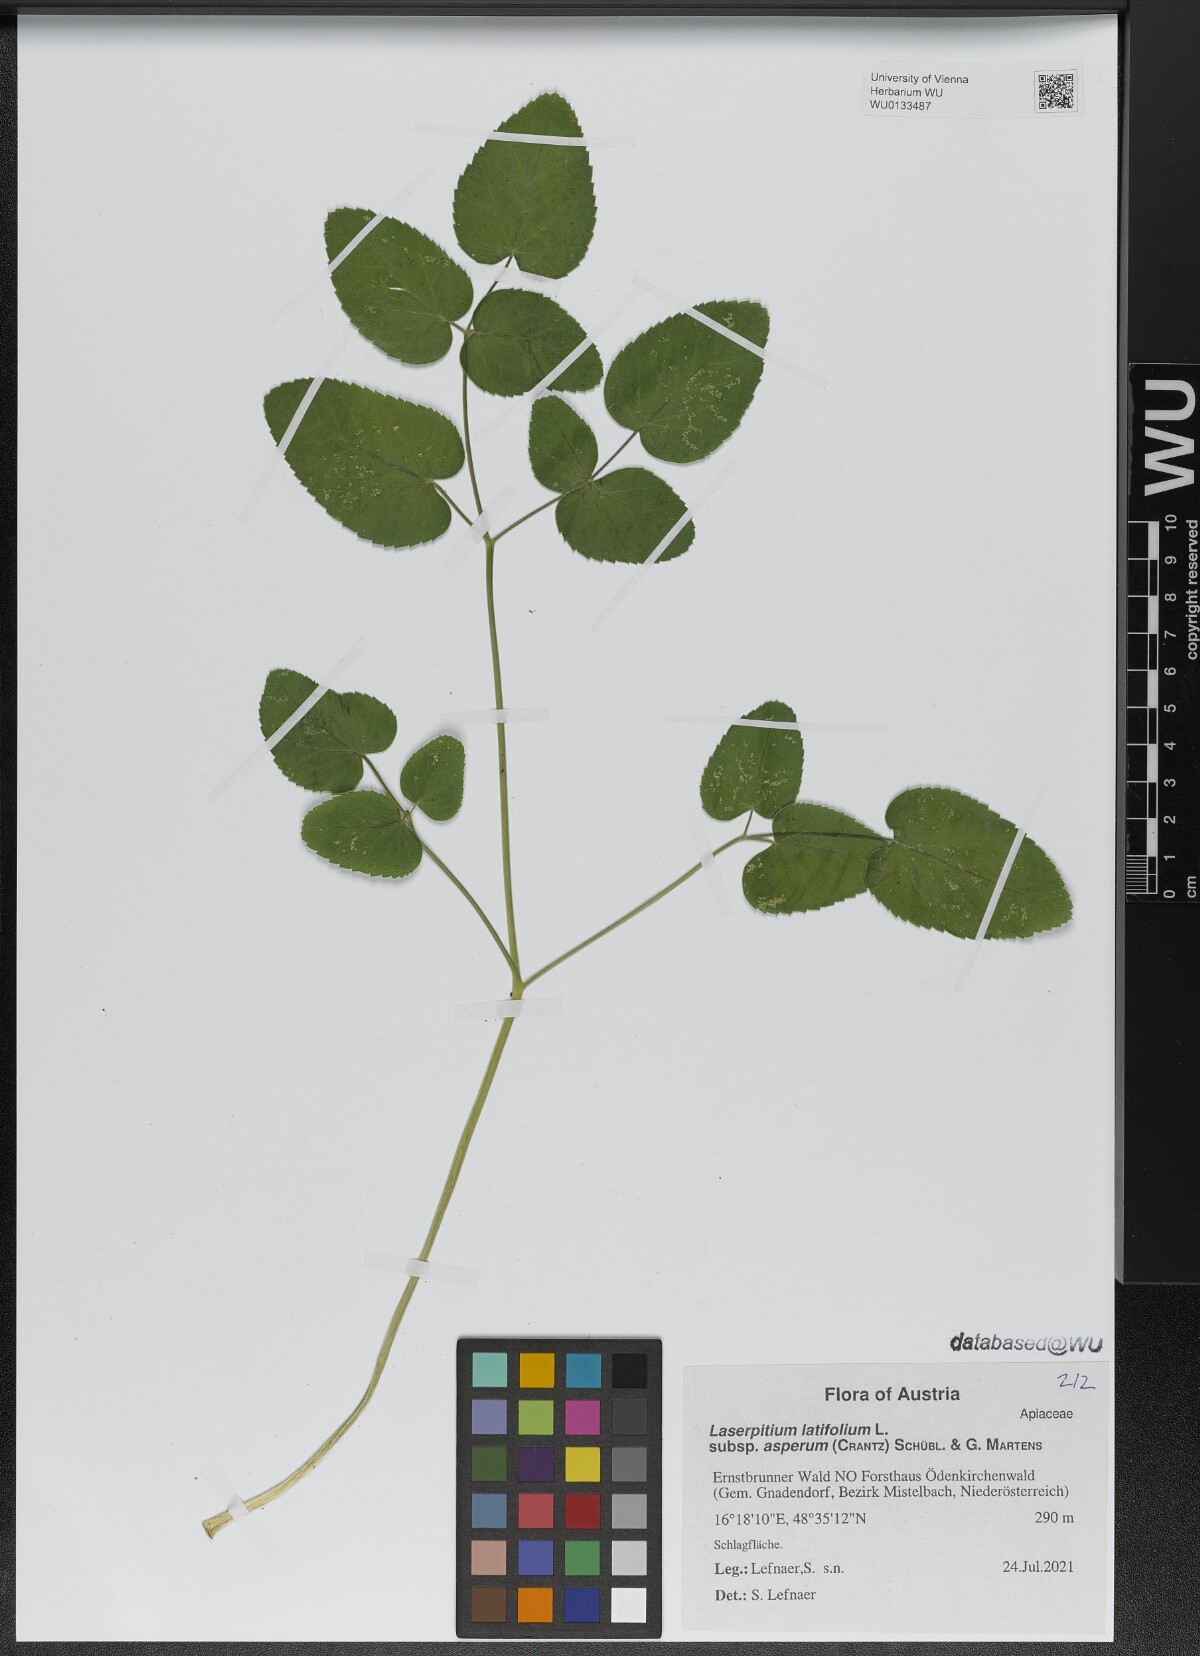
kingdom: Plantae
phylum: Tracheophyta
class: Magnoliopsida
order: Apiales
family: Apiaceae
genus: Laserpitium
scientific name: Laserpitium latifolium
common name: Broadleaf sermountain
